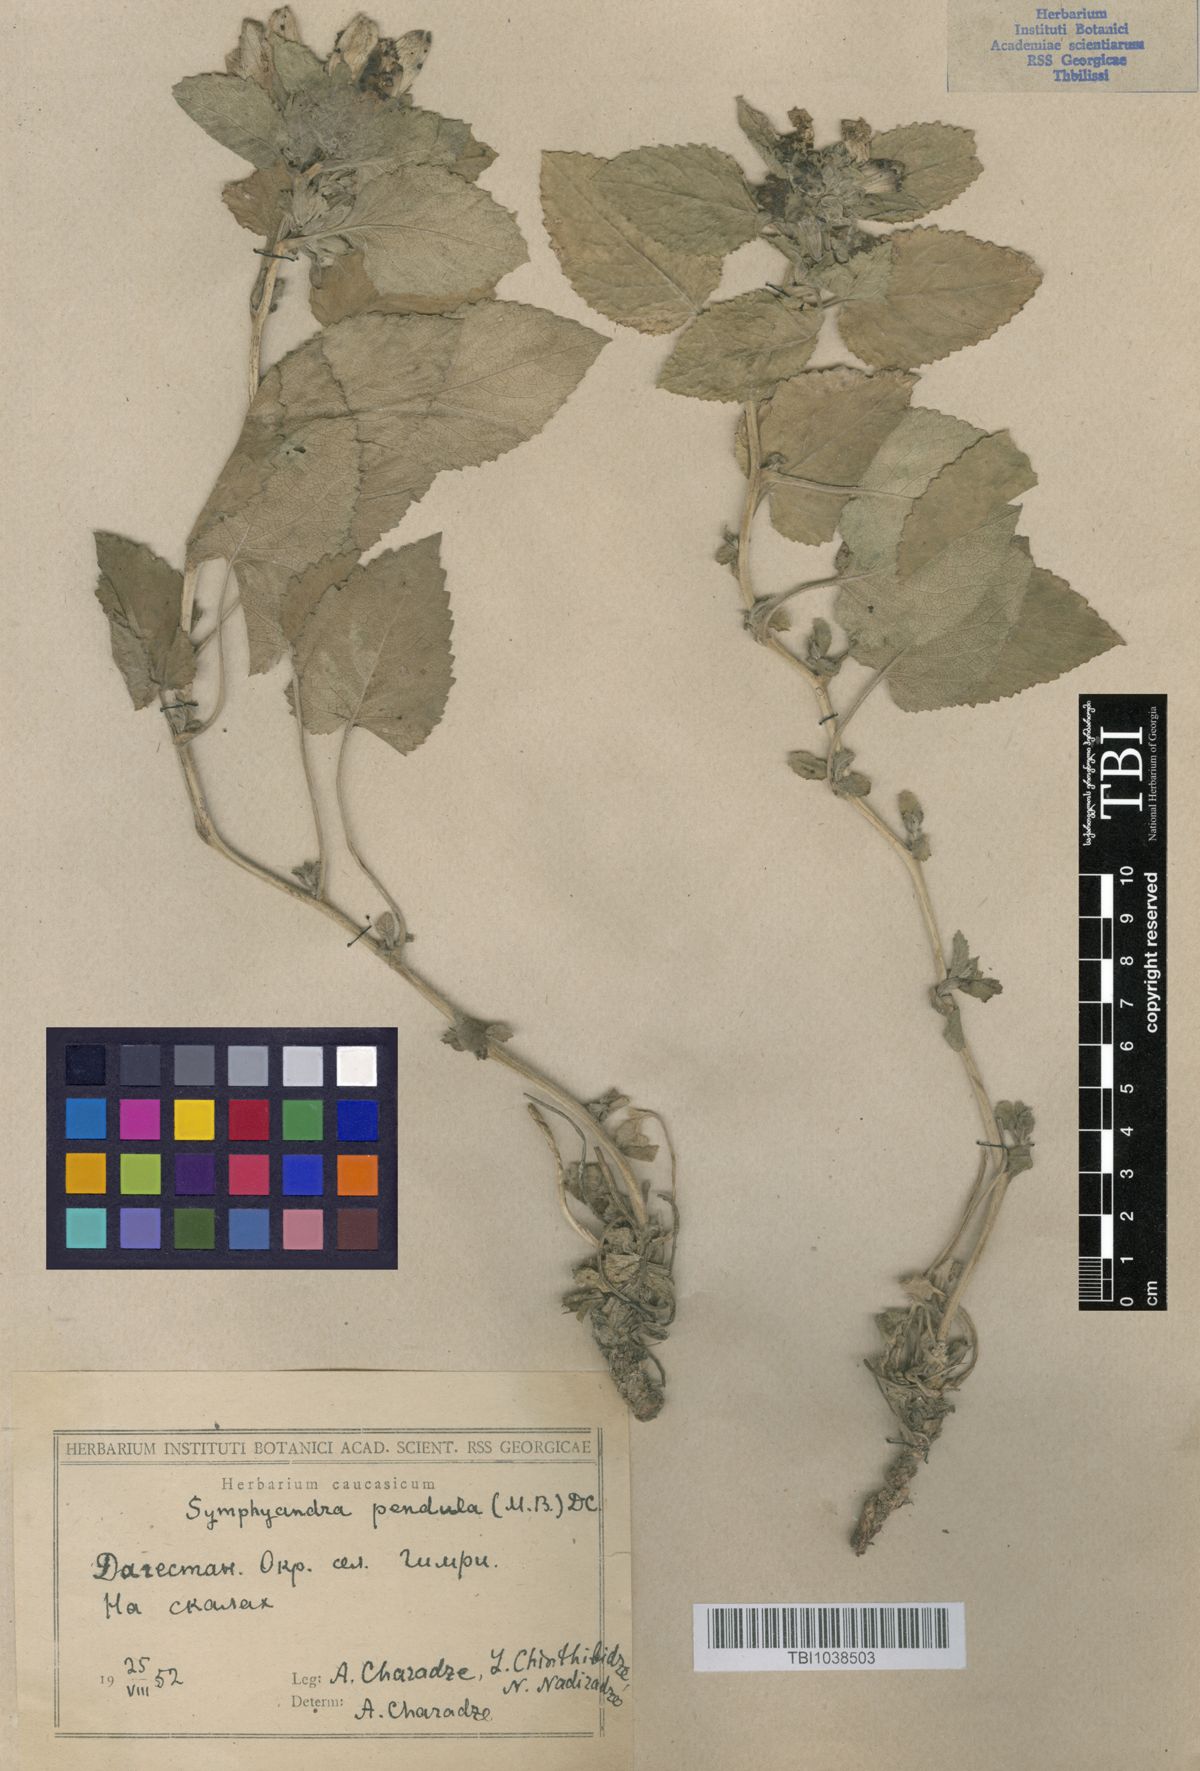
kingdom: Plantae
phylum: Tracheophyta
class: Magnoliopsida
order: Asterales
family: Campanulaceae
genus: Campanula
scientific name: Campanula pendula
